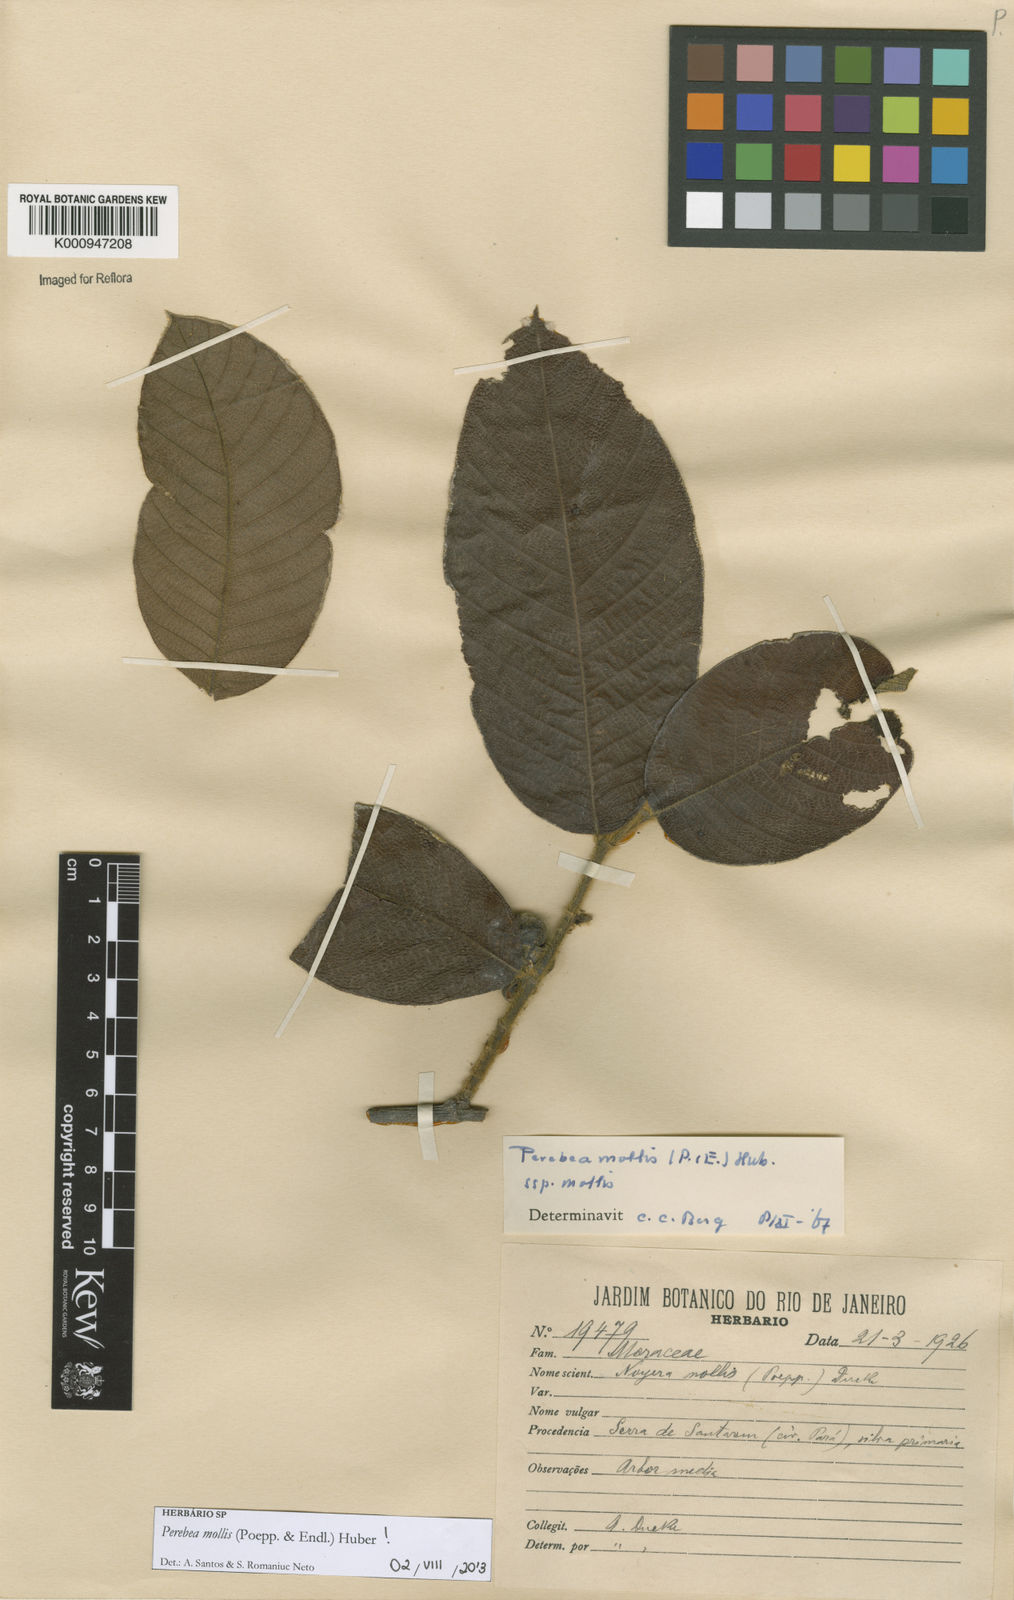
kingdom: Plantae
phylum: Tracheophyta
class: Magnoliopsida
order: Rosales
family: Moraceae
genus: Perebea
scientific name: Perebea mollis
